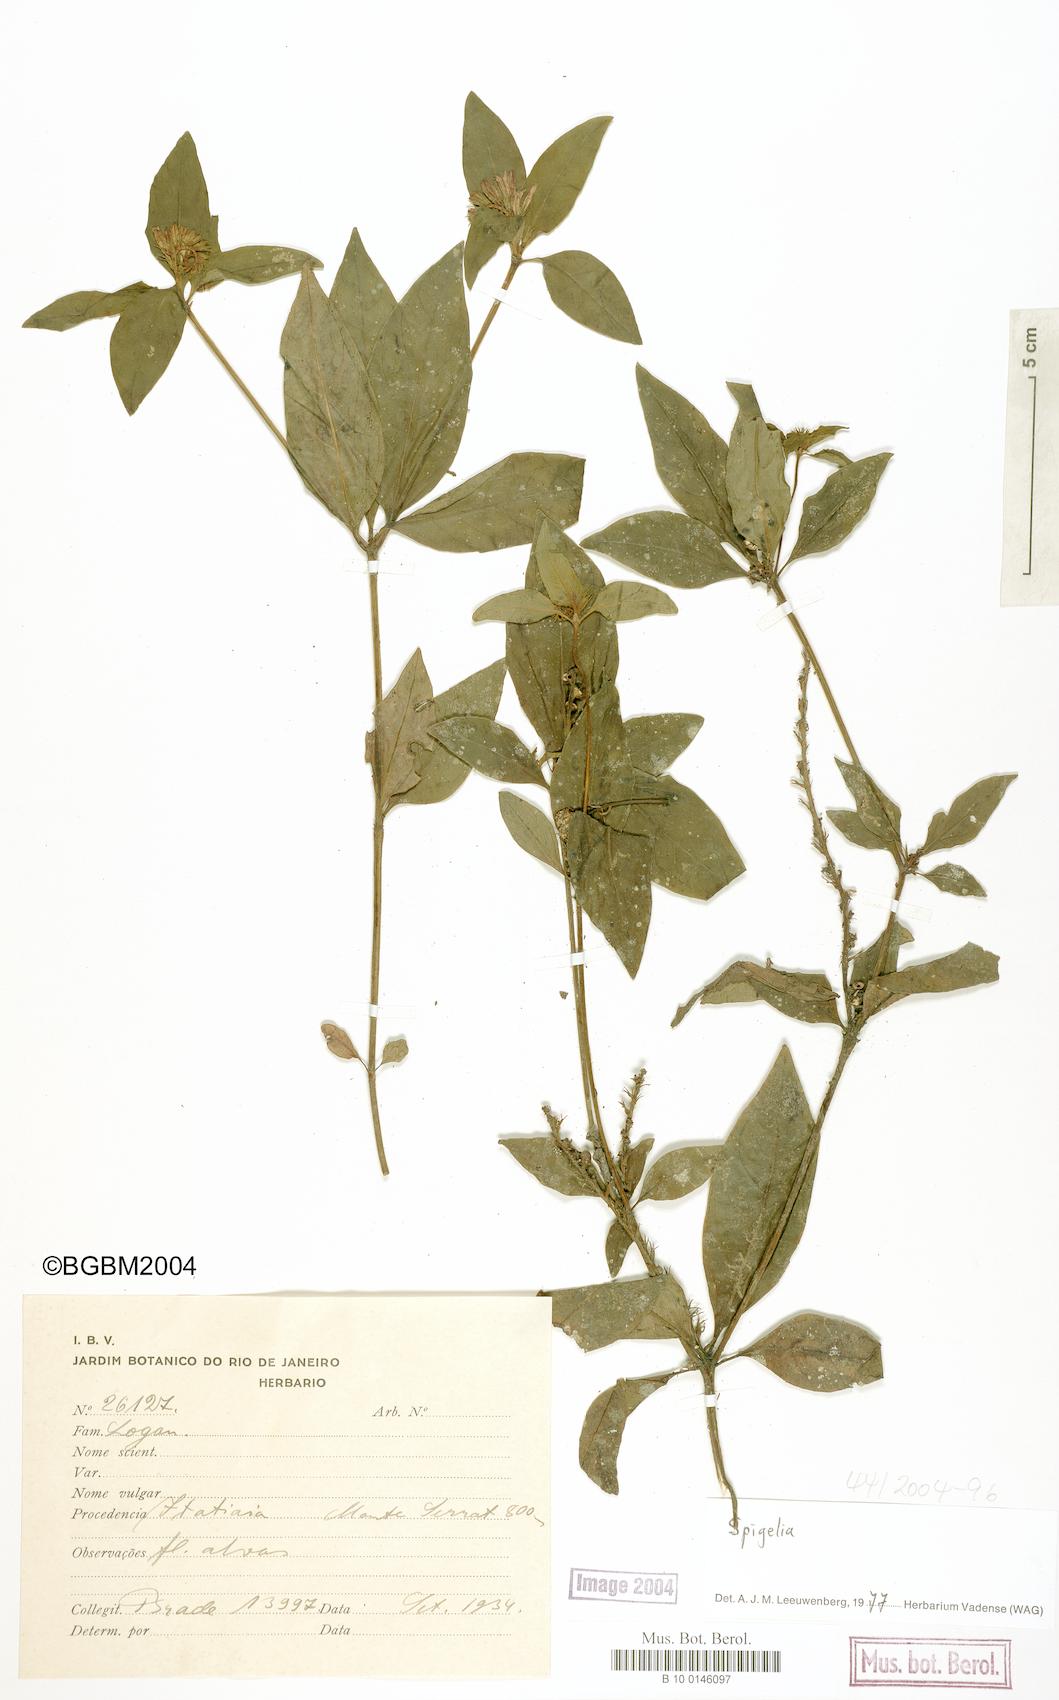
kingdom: Plantae
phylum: Tracheophyta
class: Magnoliopsida
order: Gentianales
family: Loganiaceae
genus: Spigelia
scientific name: Spigelia
